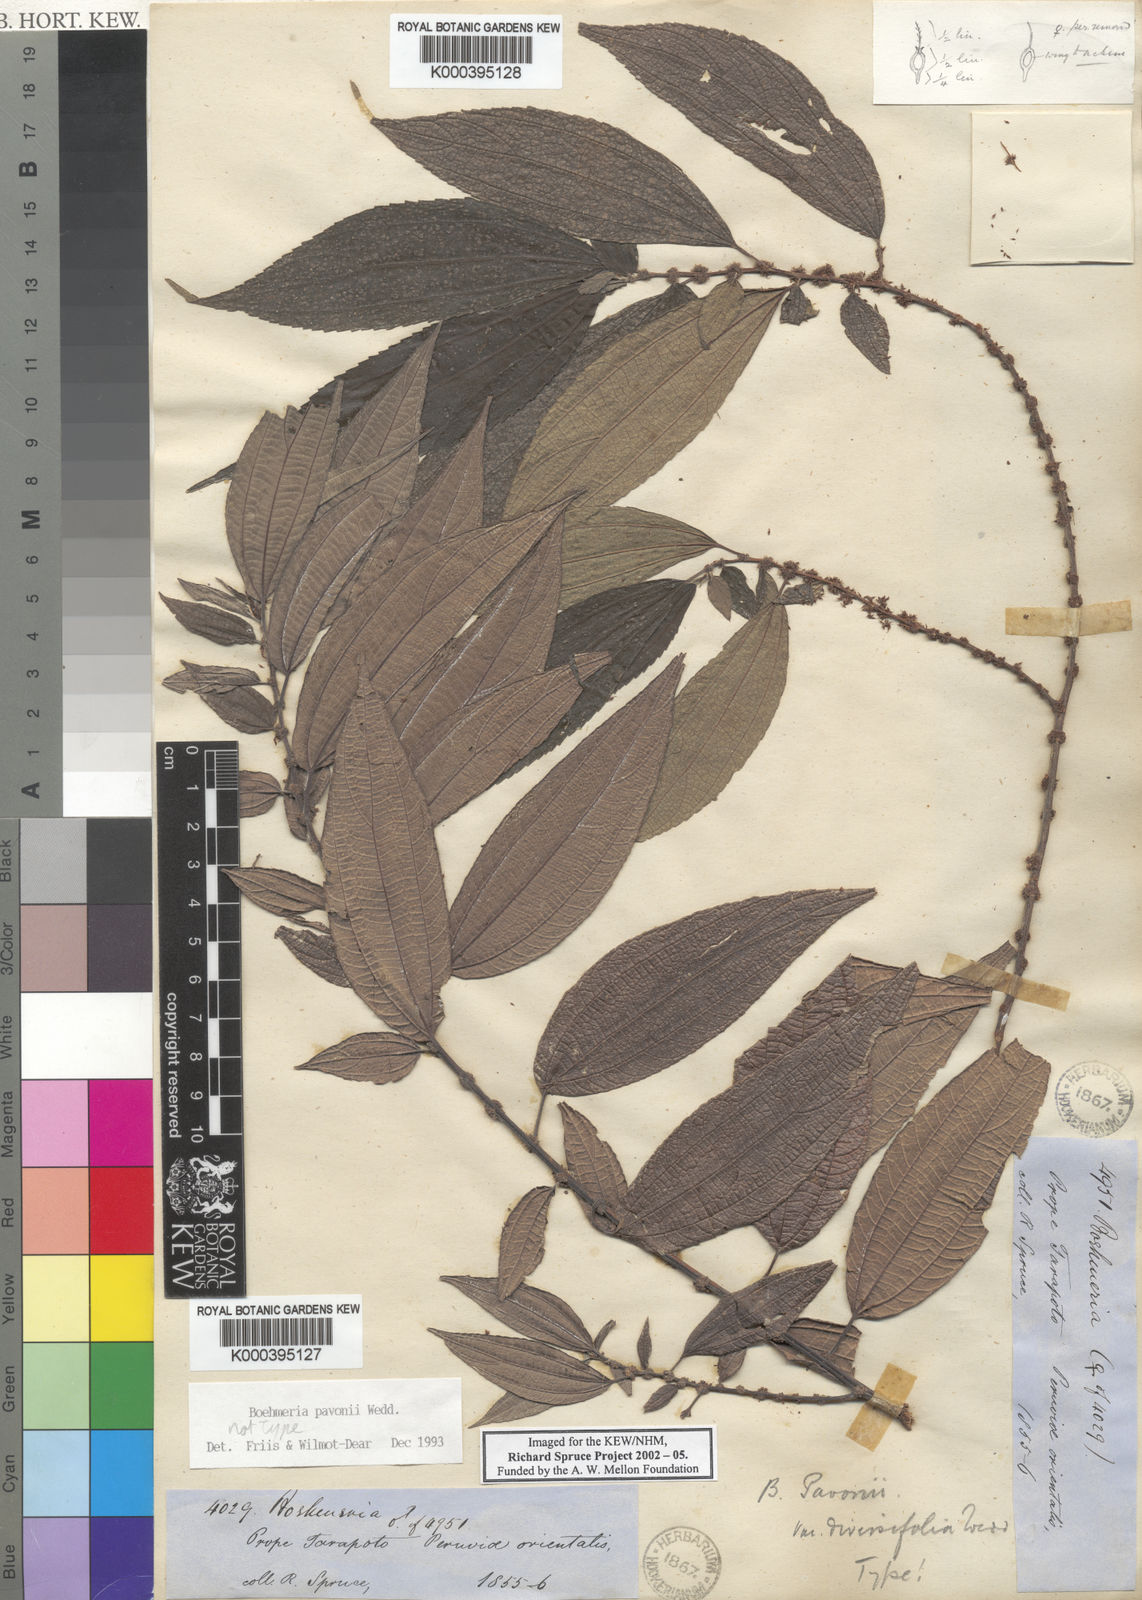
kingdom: Plantae
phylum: Tracheophyta
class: Magnoliopsida
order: Rosales
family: Urticaceae
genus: Boehmeria
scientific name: Boehmeria pavonii
